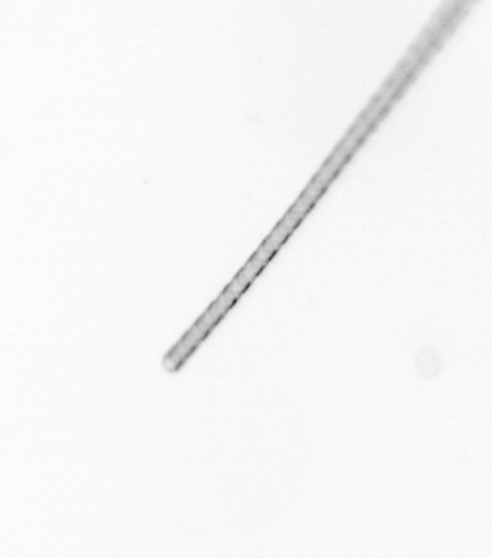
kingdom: Chromista
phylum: Ochrophyta
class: Bacillariophyceae
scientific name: Bacillariophyceae
